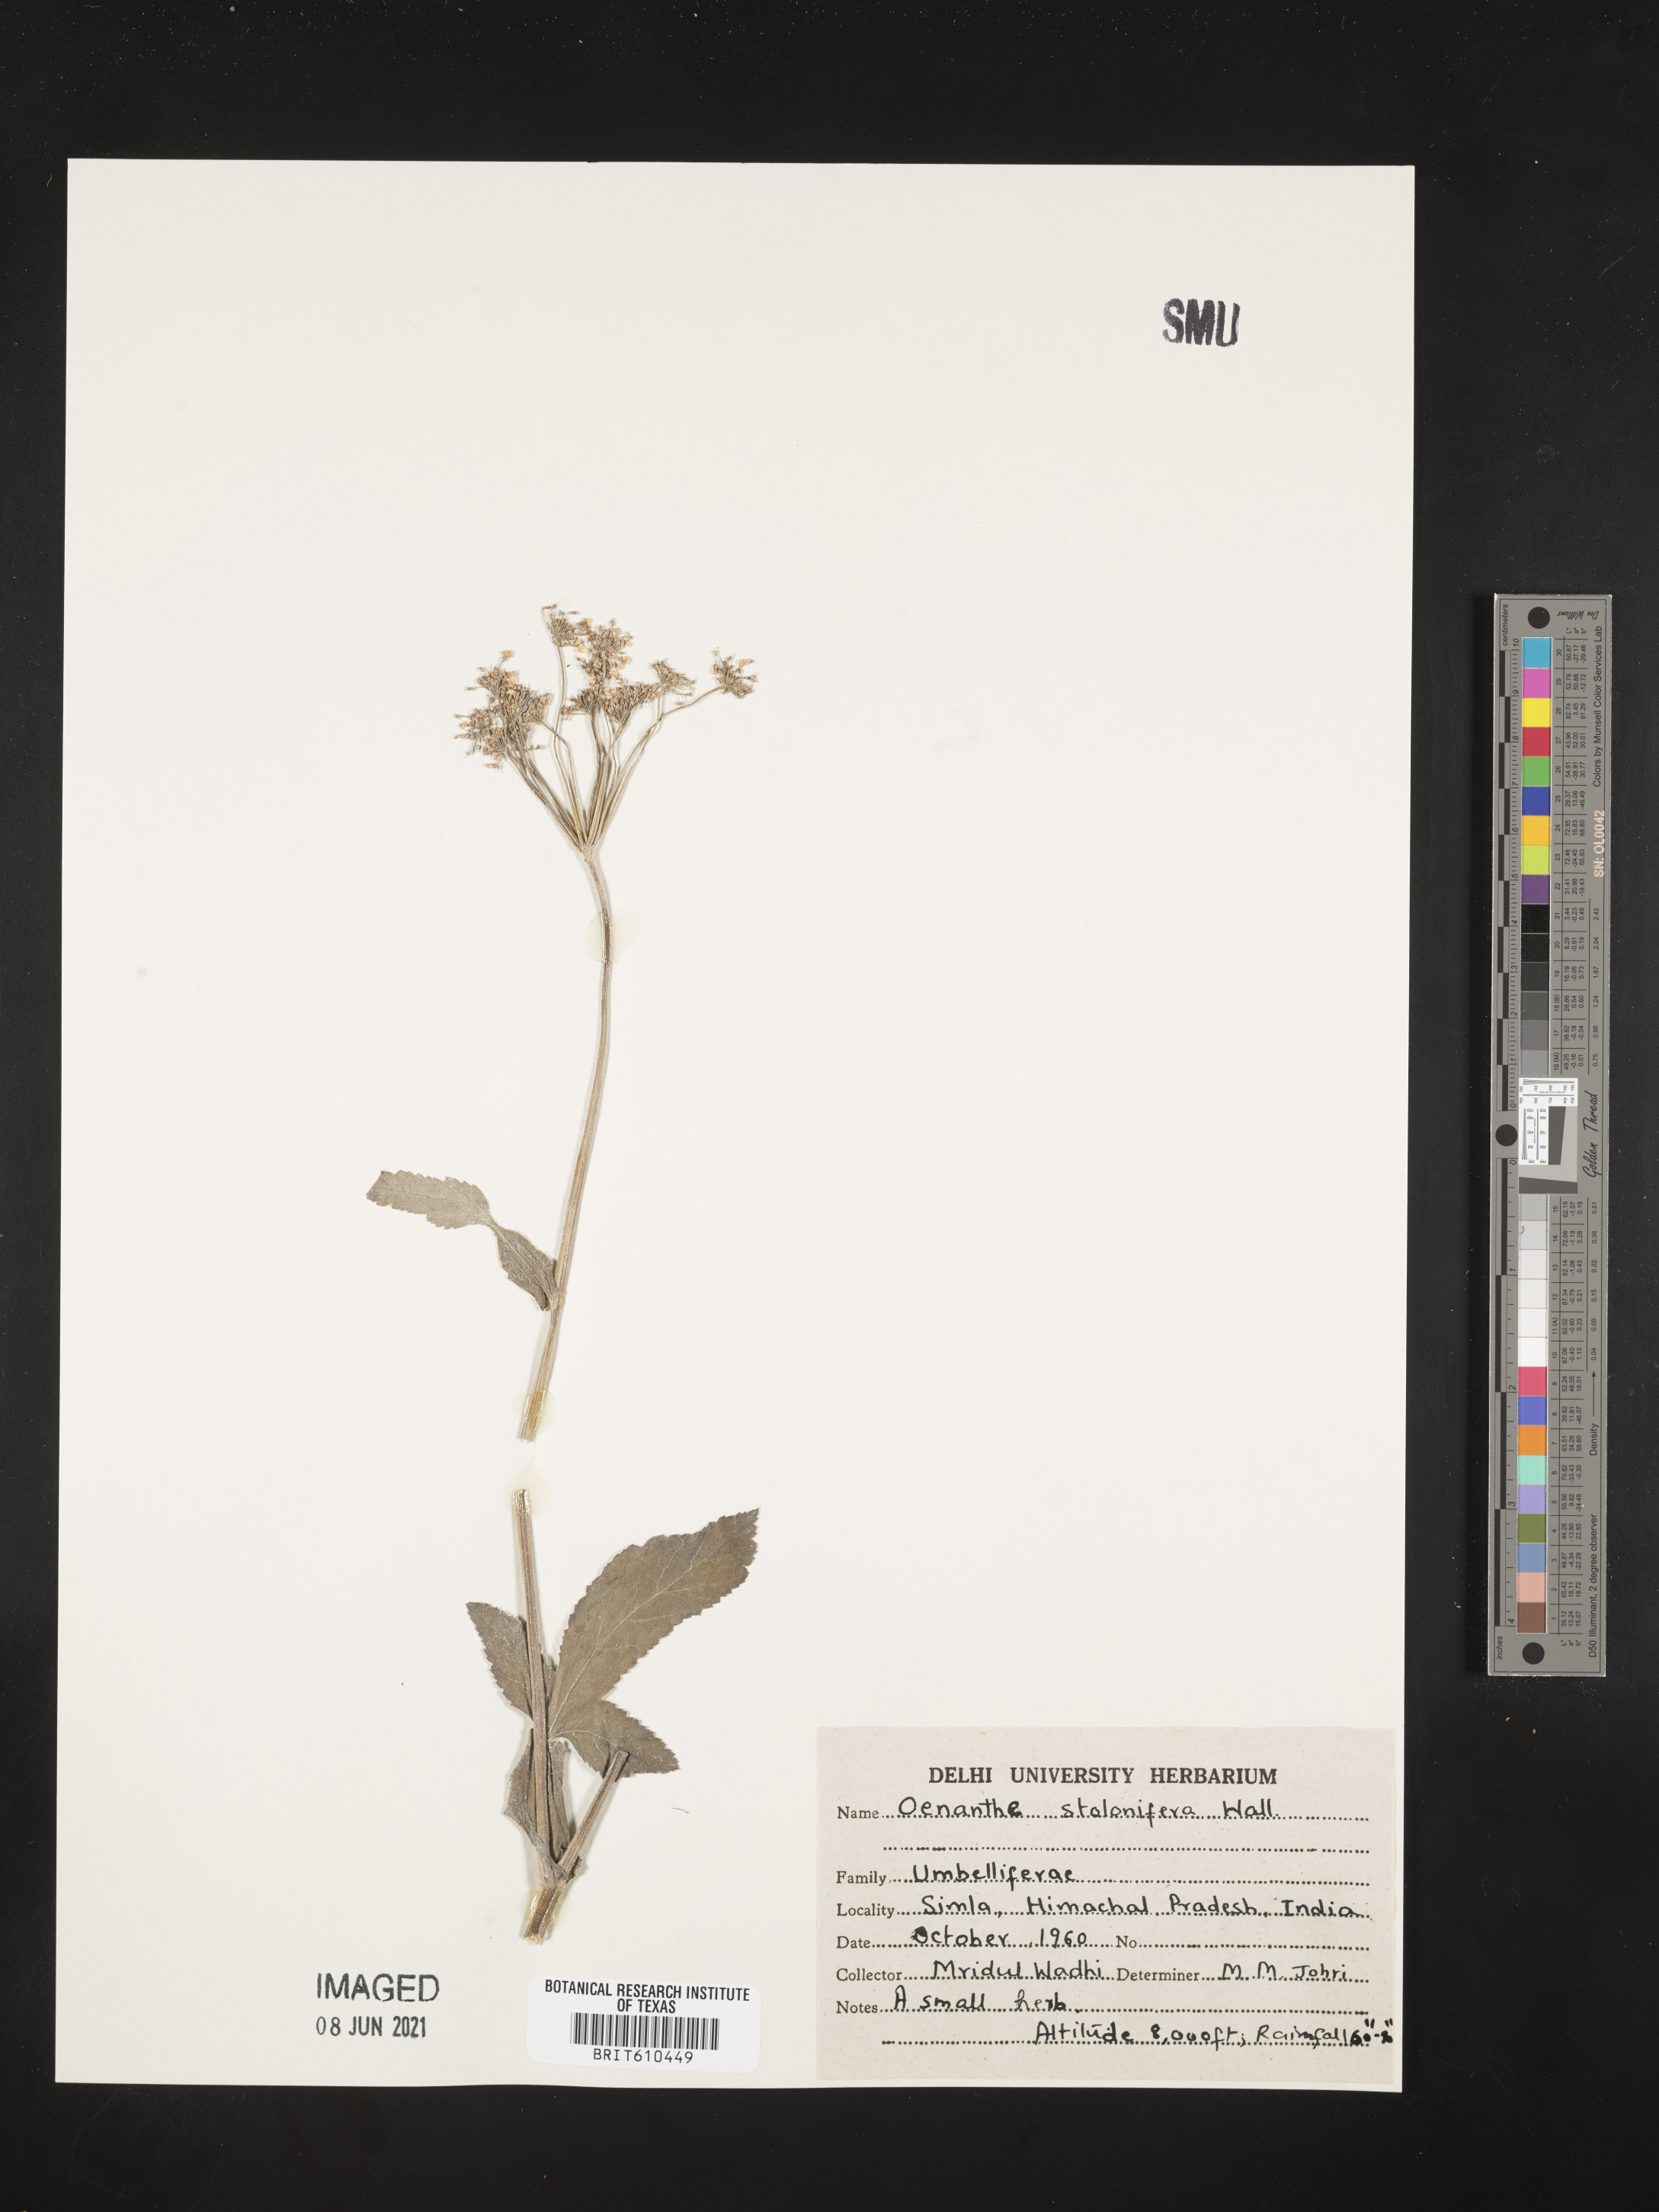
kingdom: Plantae
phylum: Tracheophyta
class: Magnoliopsida
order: Apiales
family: Apiaceae
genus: Oenanthe
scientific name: Oenanthe javanica
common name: Java water-dropwort
